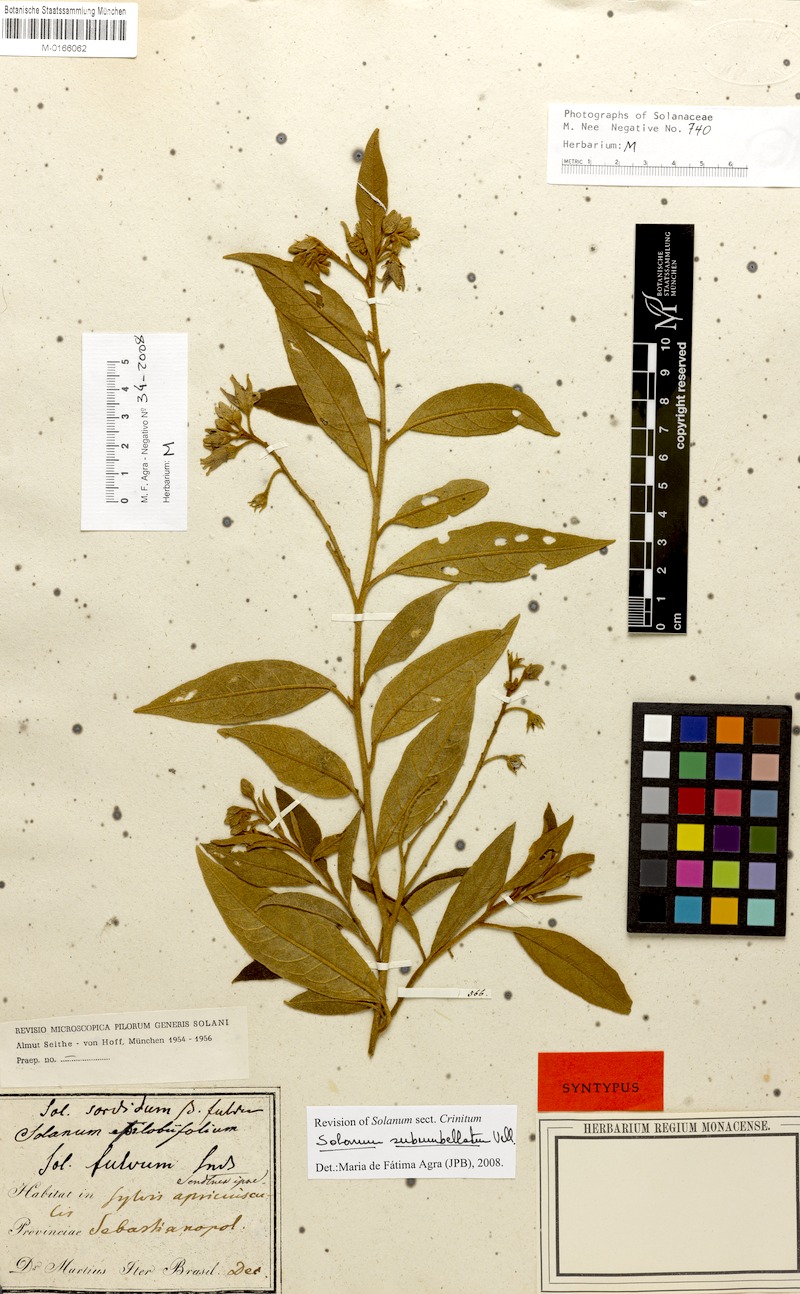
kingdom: Plantae
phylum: Tracheophyta
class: Magnoliopsida
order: Solanales
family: Solanaceae
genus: Solanum
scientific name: Solanum subumbellatum
